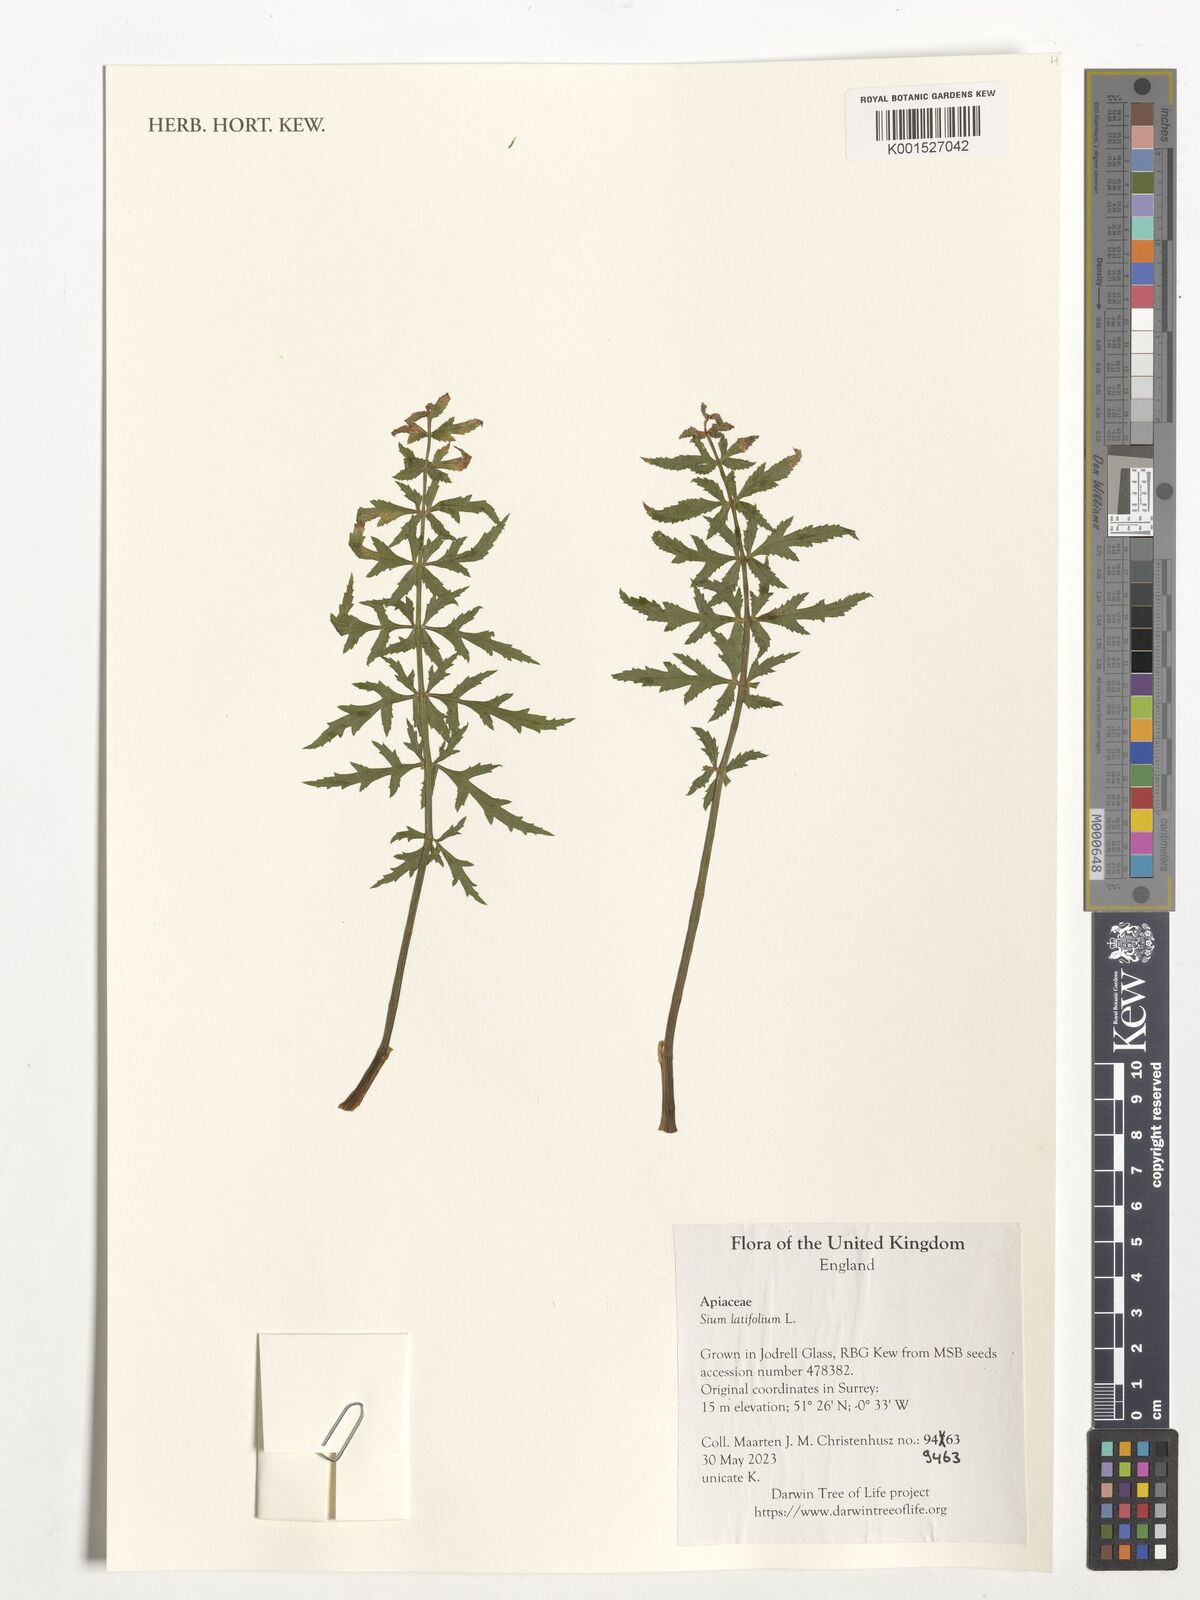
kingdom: Plantae
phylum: Tracheophyta
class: Magnoliopsida
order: Apiales
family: Apiaceae
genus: Sium
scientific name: Sium latifolium
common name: Greater water-parsnip
